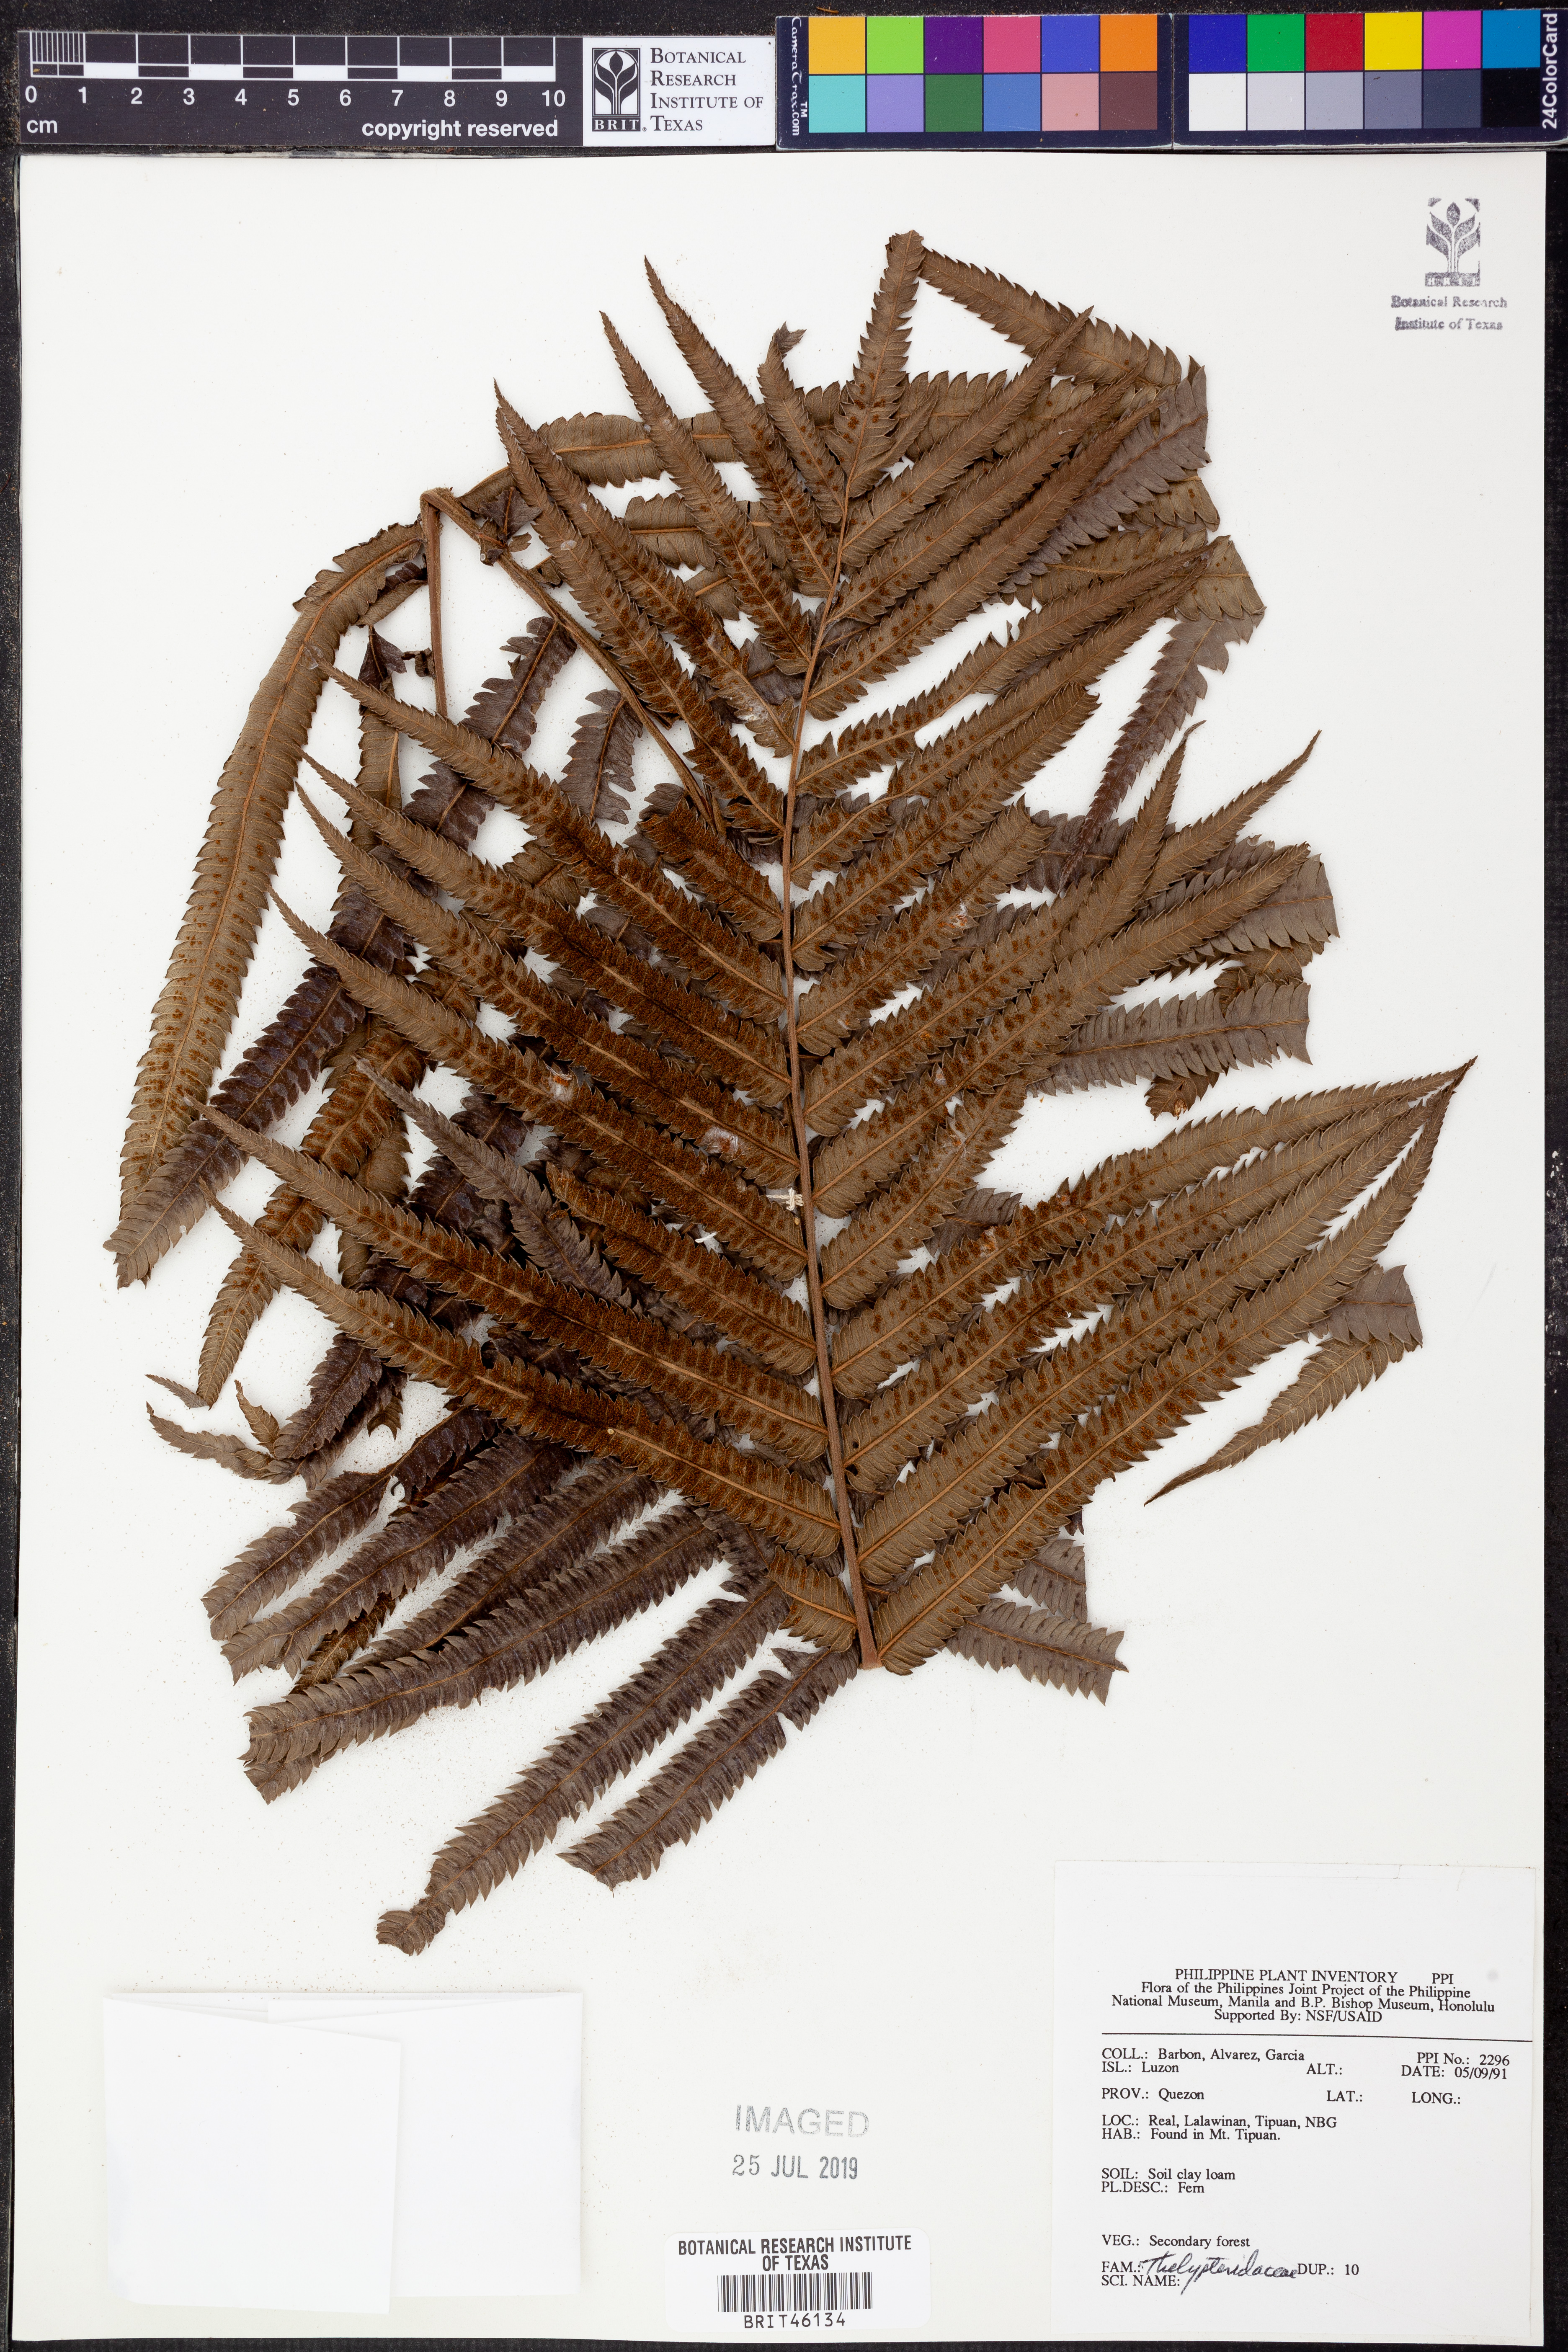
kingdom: Plantae
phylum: Tracheophyta
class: Polypodiopsida
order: Polypodiales
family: Thelypteridaceae
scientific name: Thelypteridaceae
